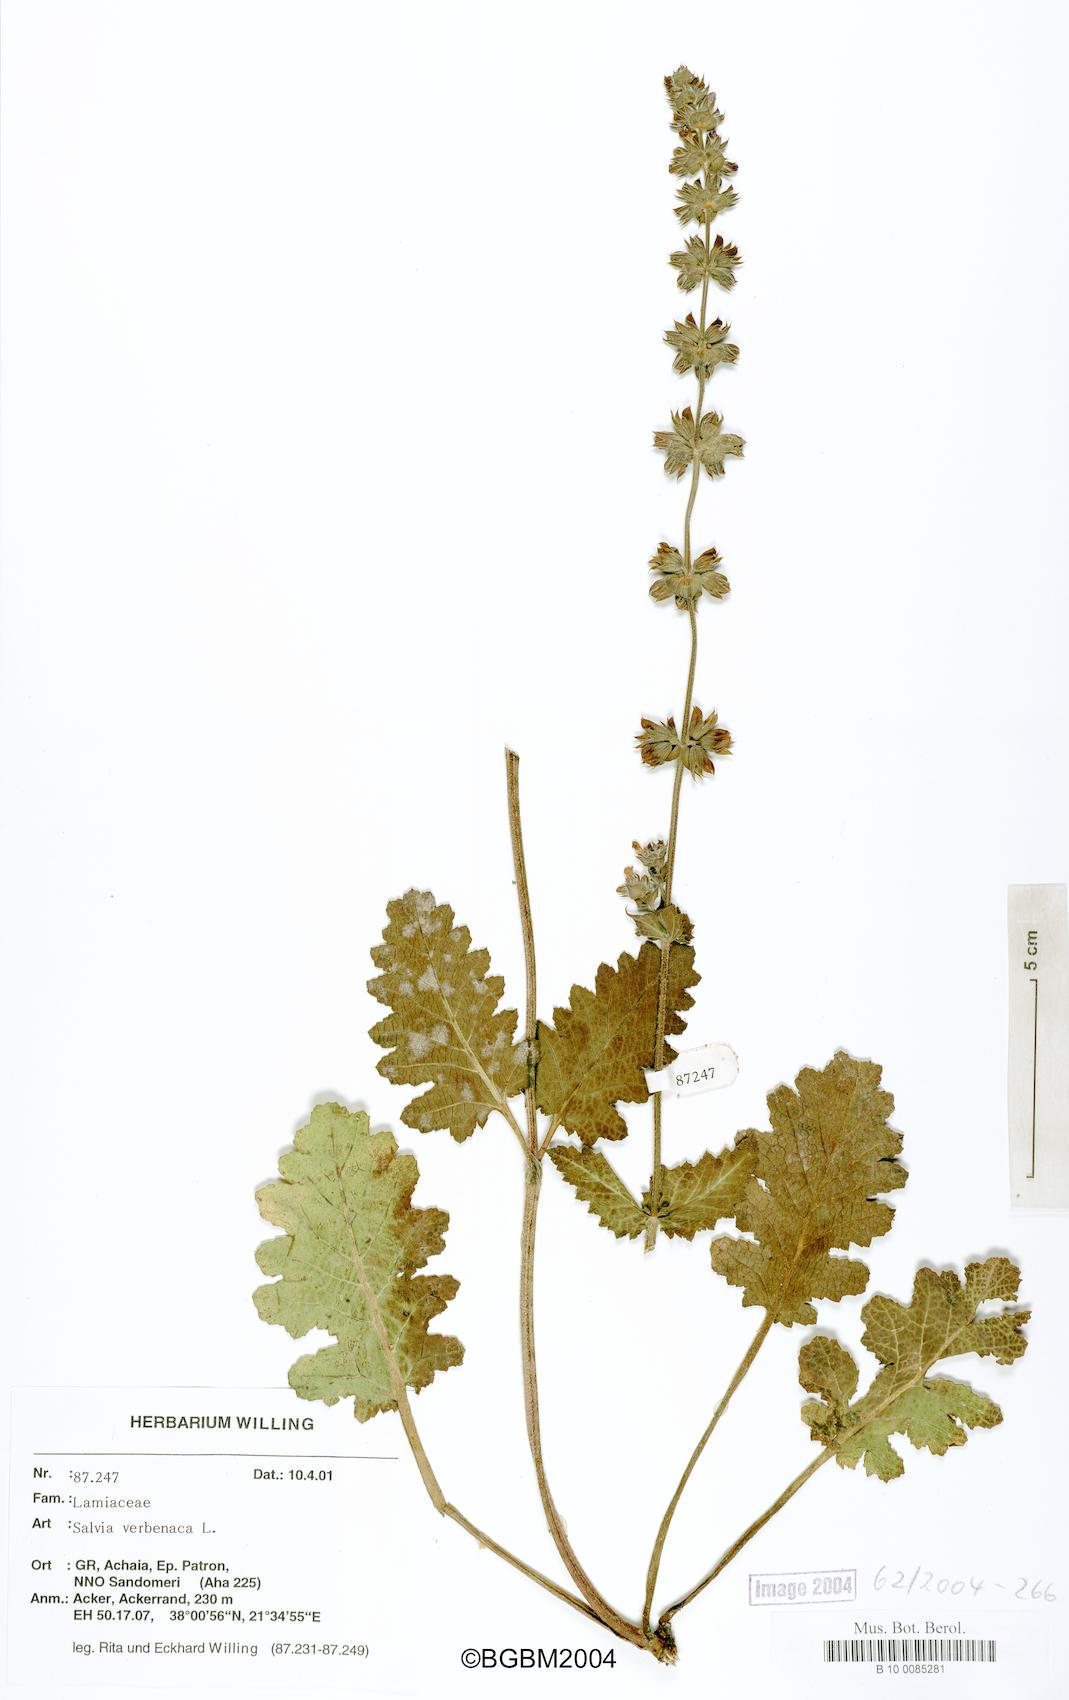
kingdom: Plantae
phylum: Tracheophyta
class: Magnoliopsida
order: Lamiales
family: Lamiaceae
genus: Salvia
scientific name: Salvia verbenaca
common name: Wild clary
